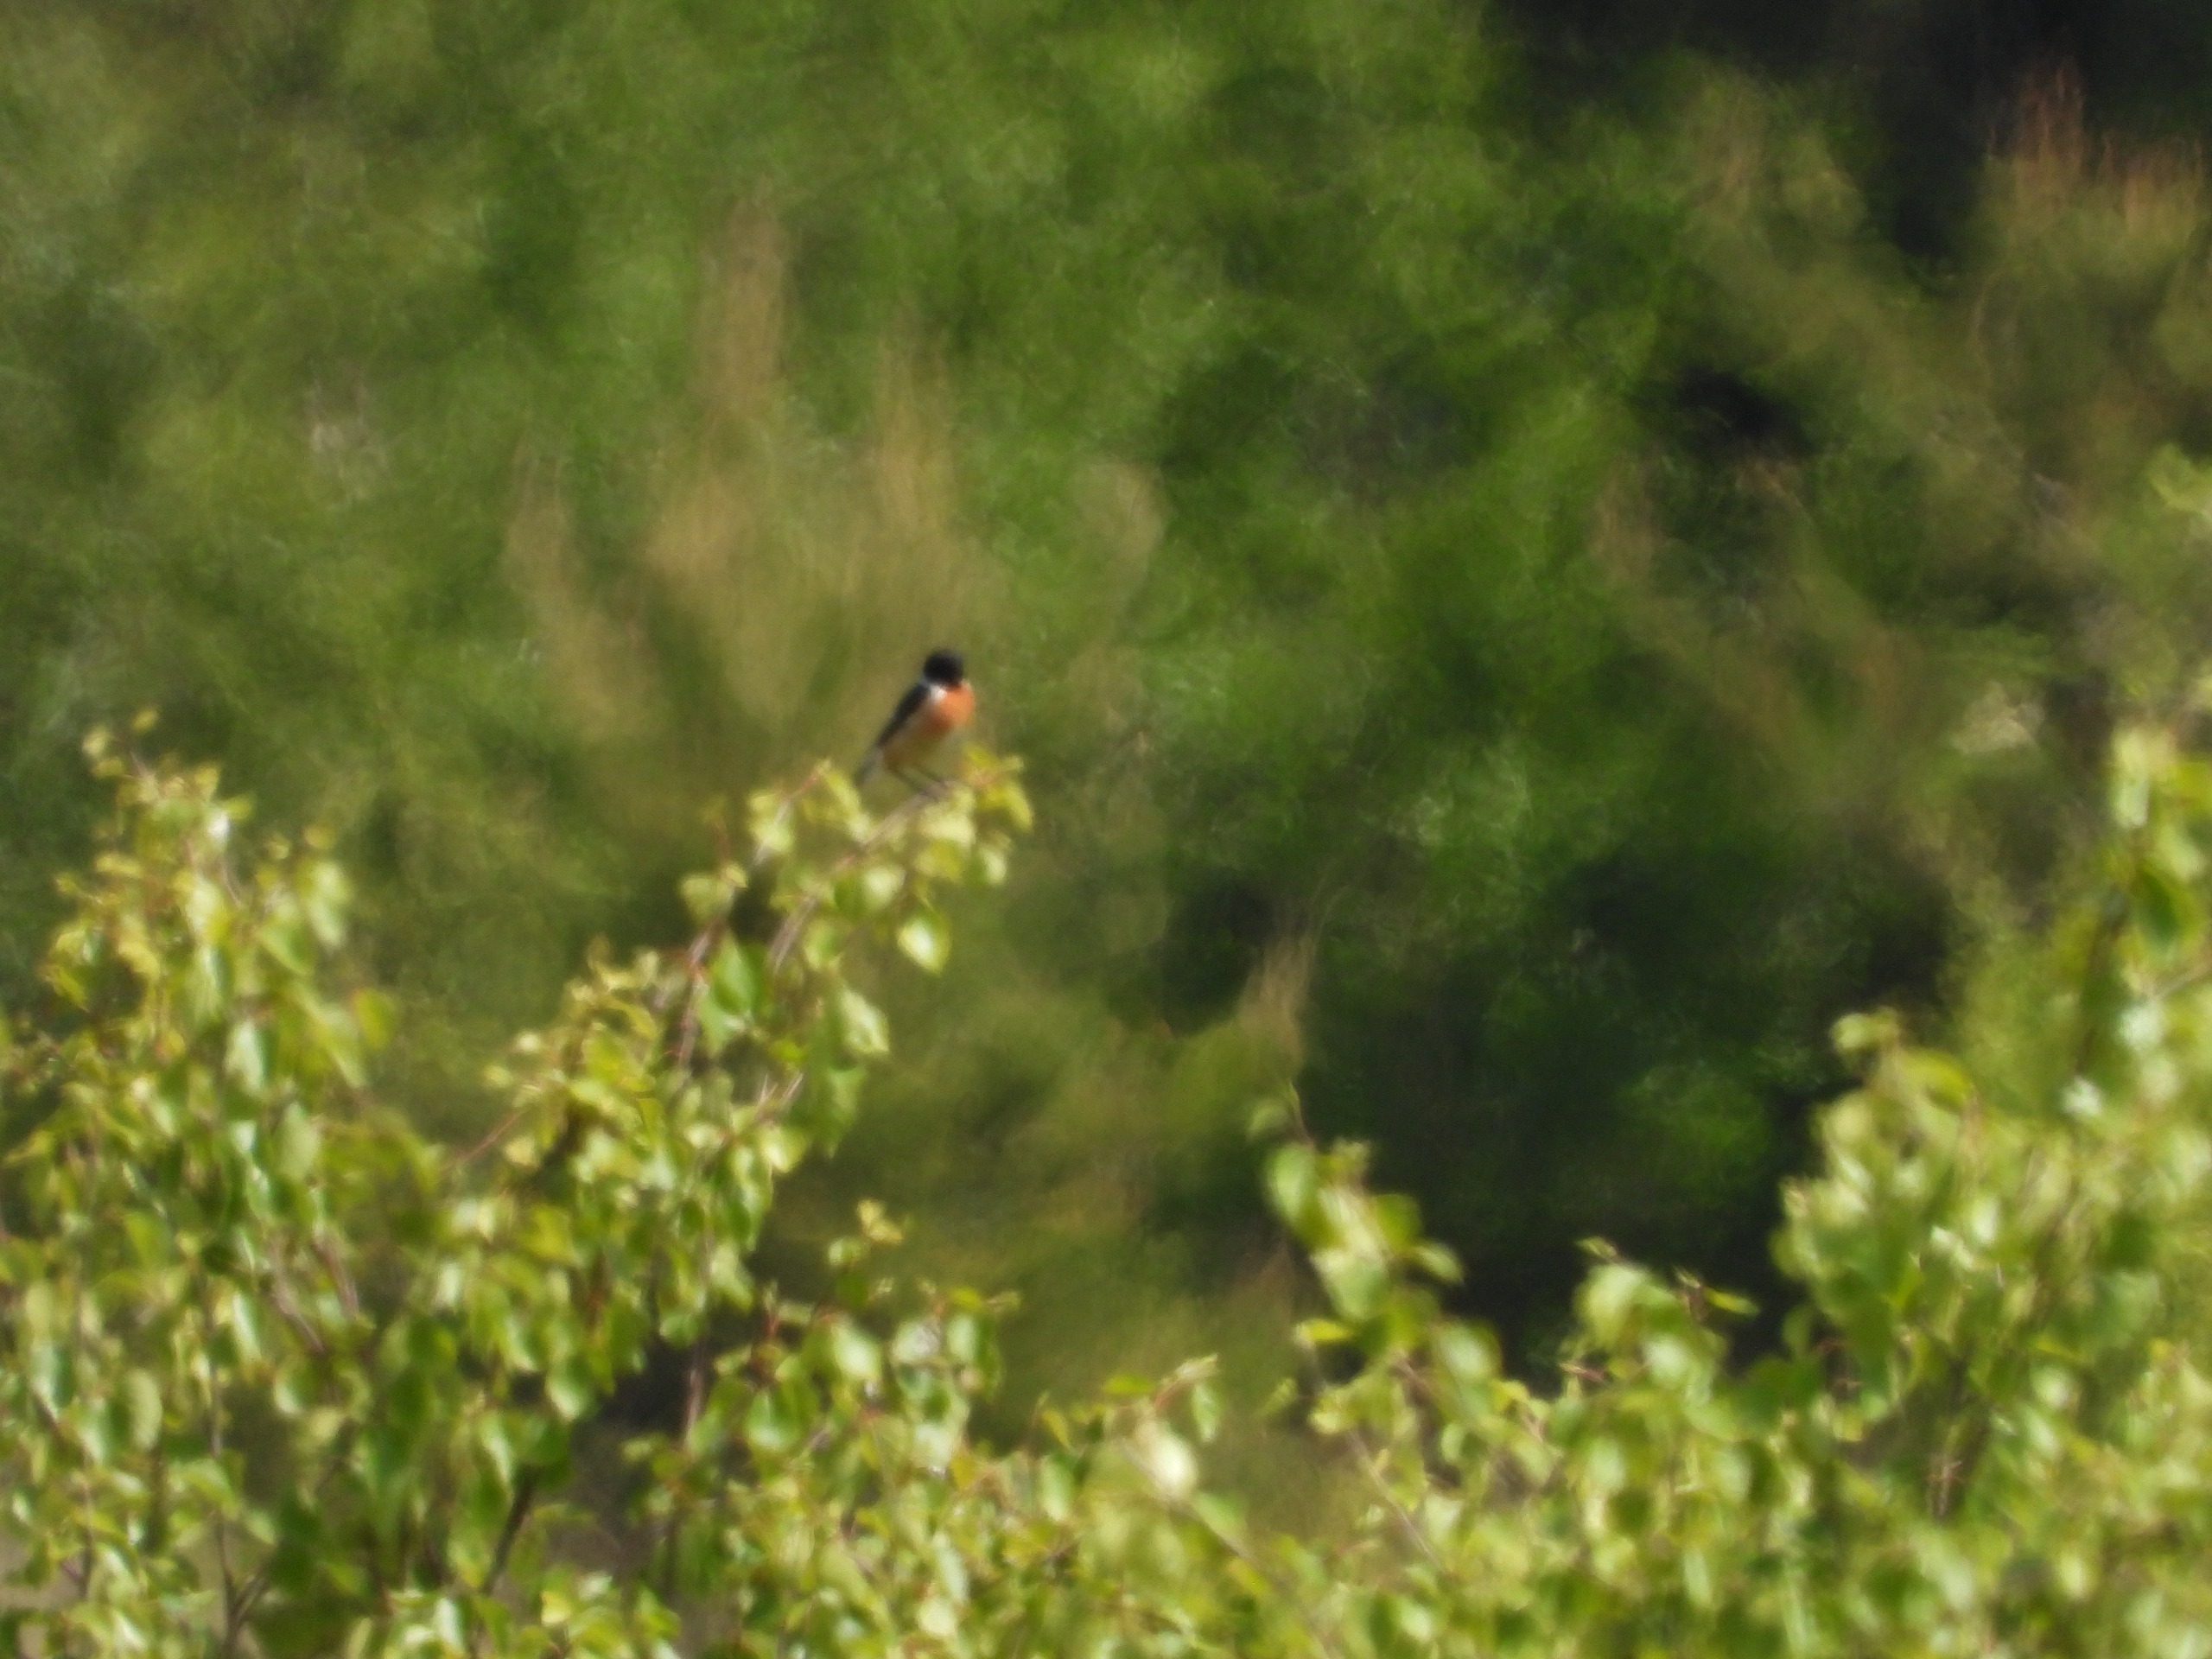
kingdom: Animalia
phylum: Chordata
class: Aves
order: Passeriformes
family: Muscicapidae
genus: Saxicola
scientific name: Saxicola rubicola
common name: Sortstrubet bynkefugl
